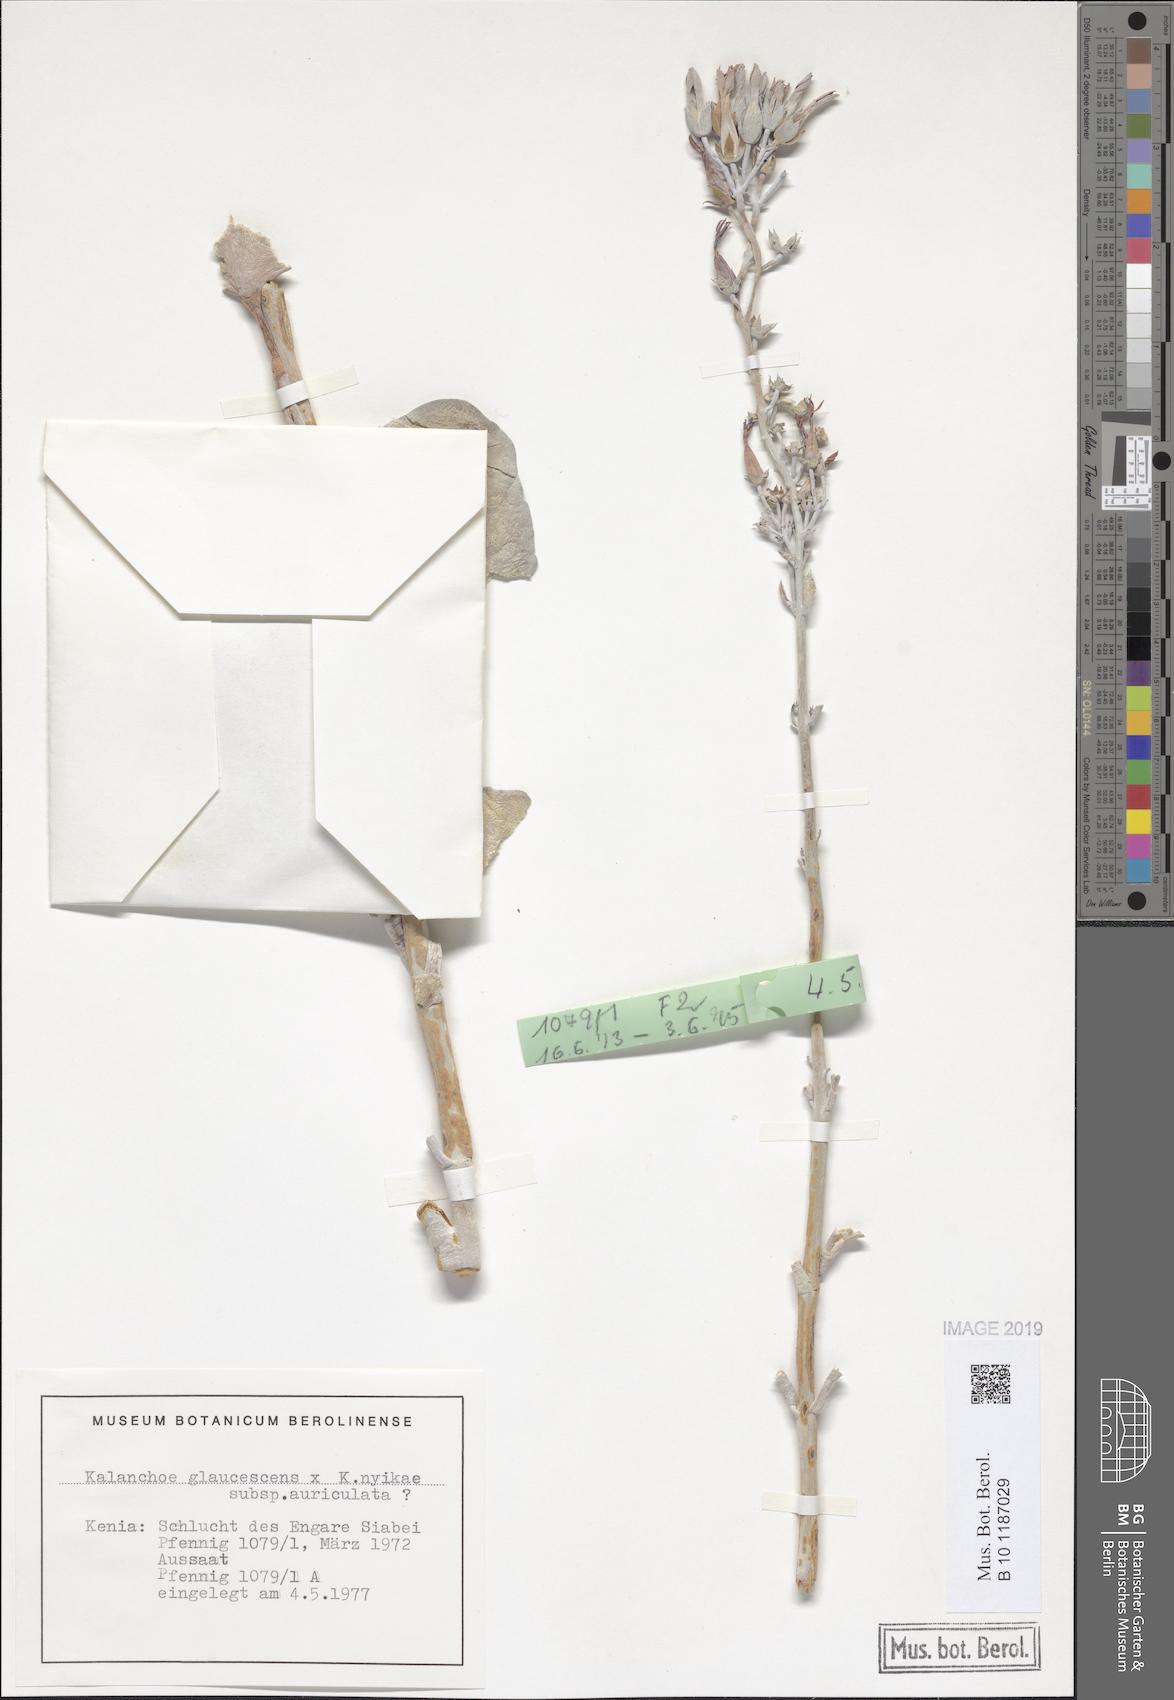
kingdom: Plantae
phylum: Tracheophyta
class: Magnoliopsida
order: Saxifragales
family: Crassulaceae
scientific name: Crassulaceae
